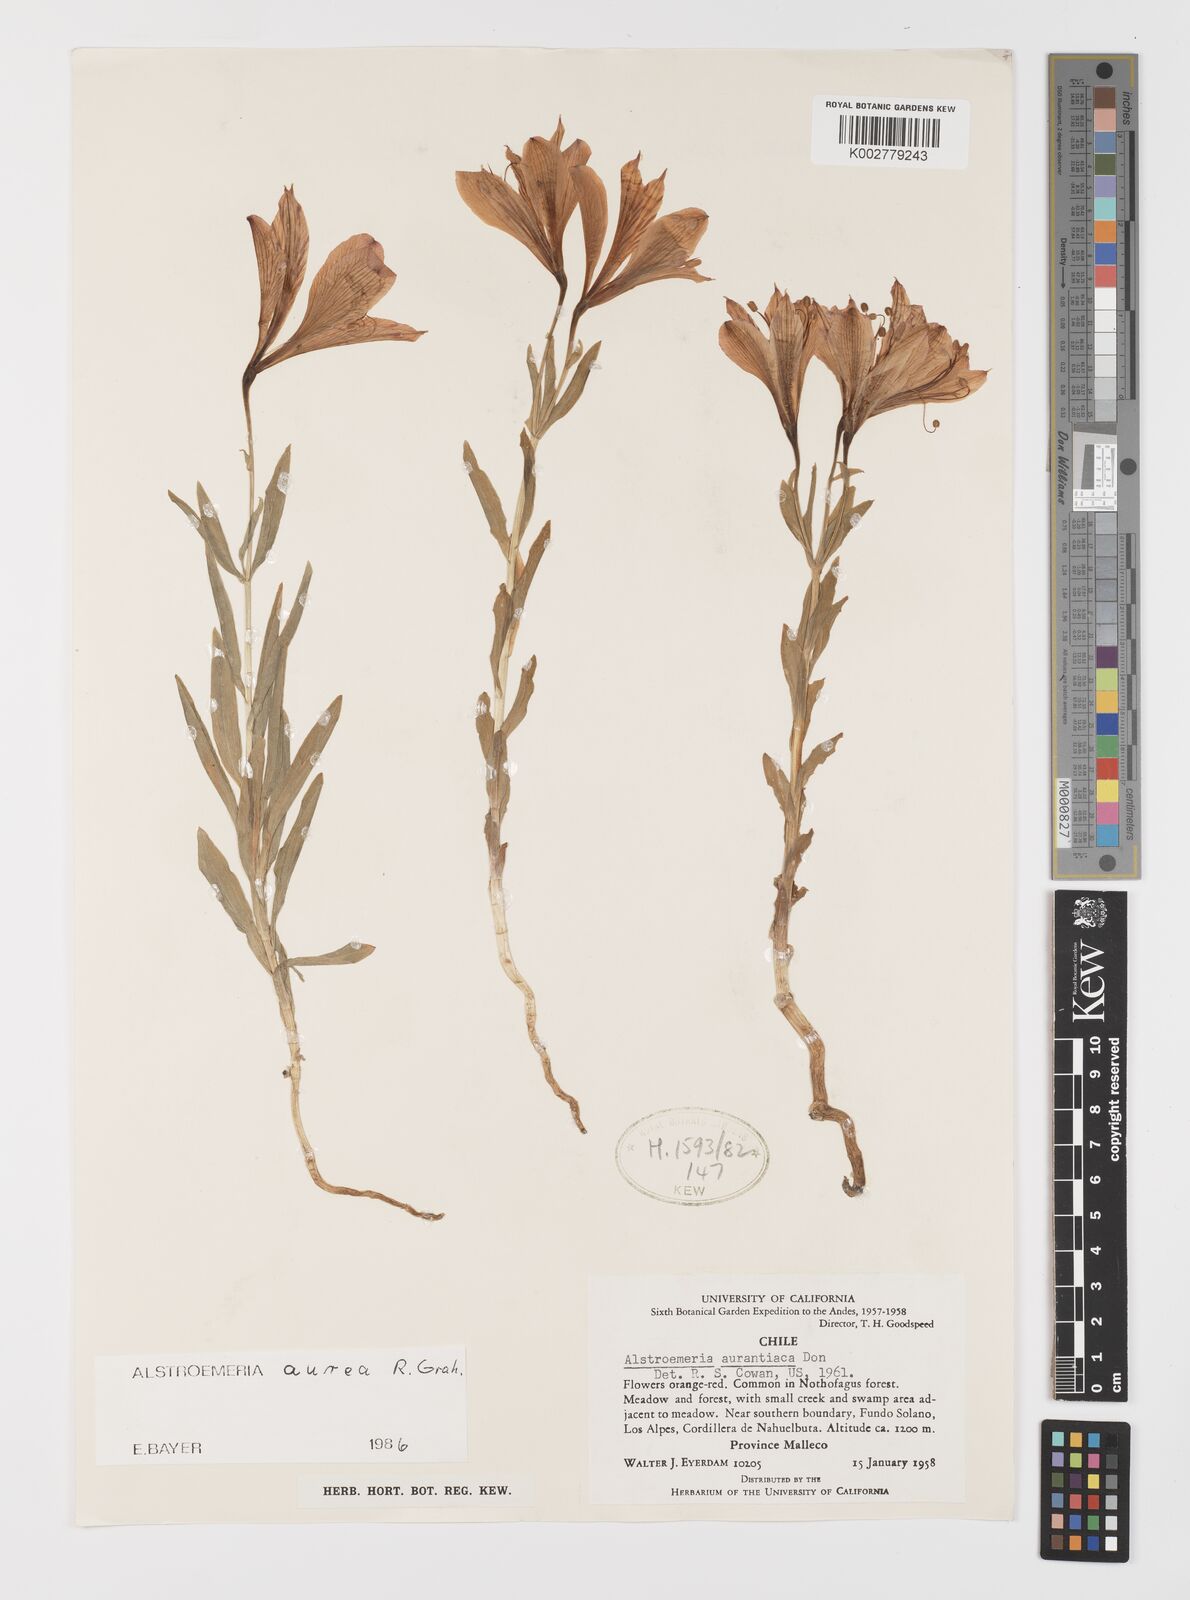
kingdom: Plantae
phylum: Tracheophyta
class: Liliopsida
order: Liliales
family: Alstroemeriaceae
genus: Alstroemeria
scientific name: Alstroemeria aurea
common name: Peruvian lily
